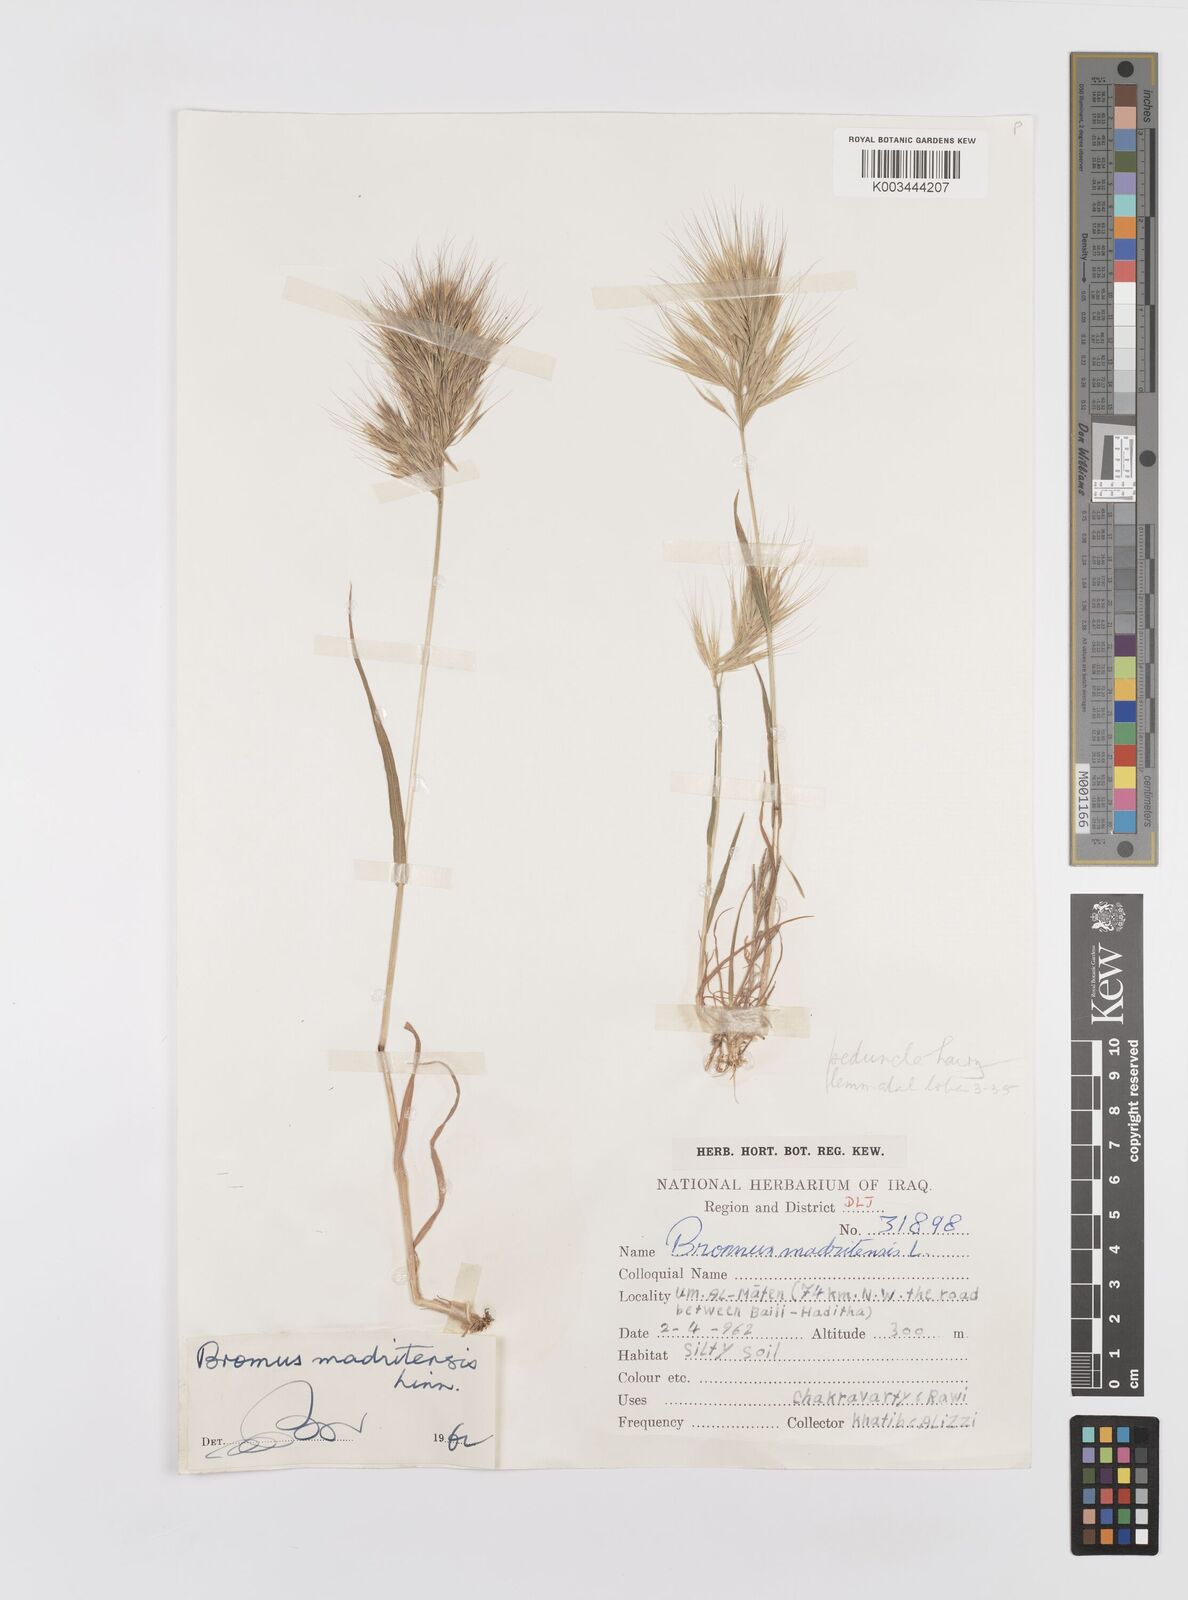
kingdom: Plantae
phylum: Tracheophyta
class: Liliopsida
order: Poales
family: Poaceae
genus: Bromus
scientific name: Bromus madritensis
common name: Compact brome
